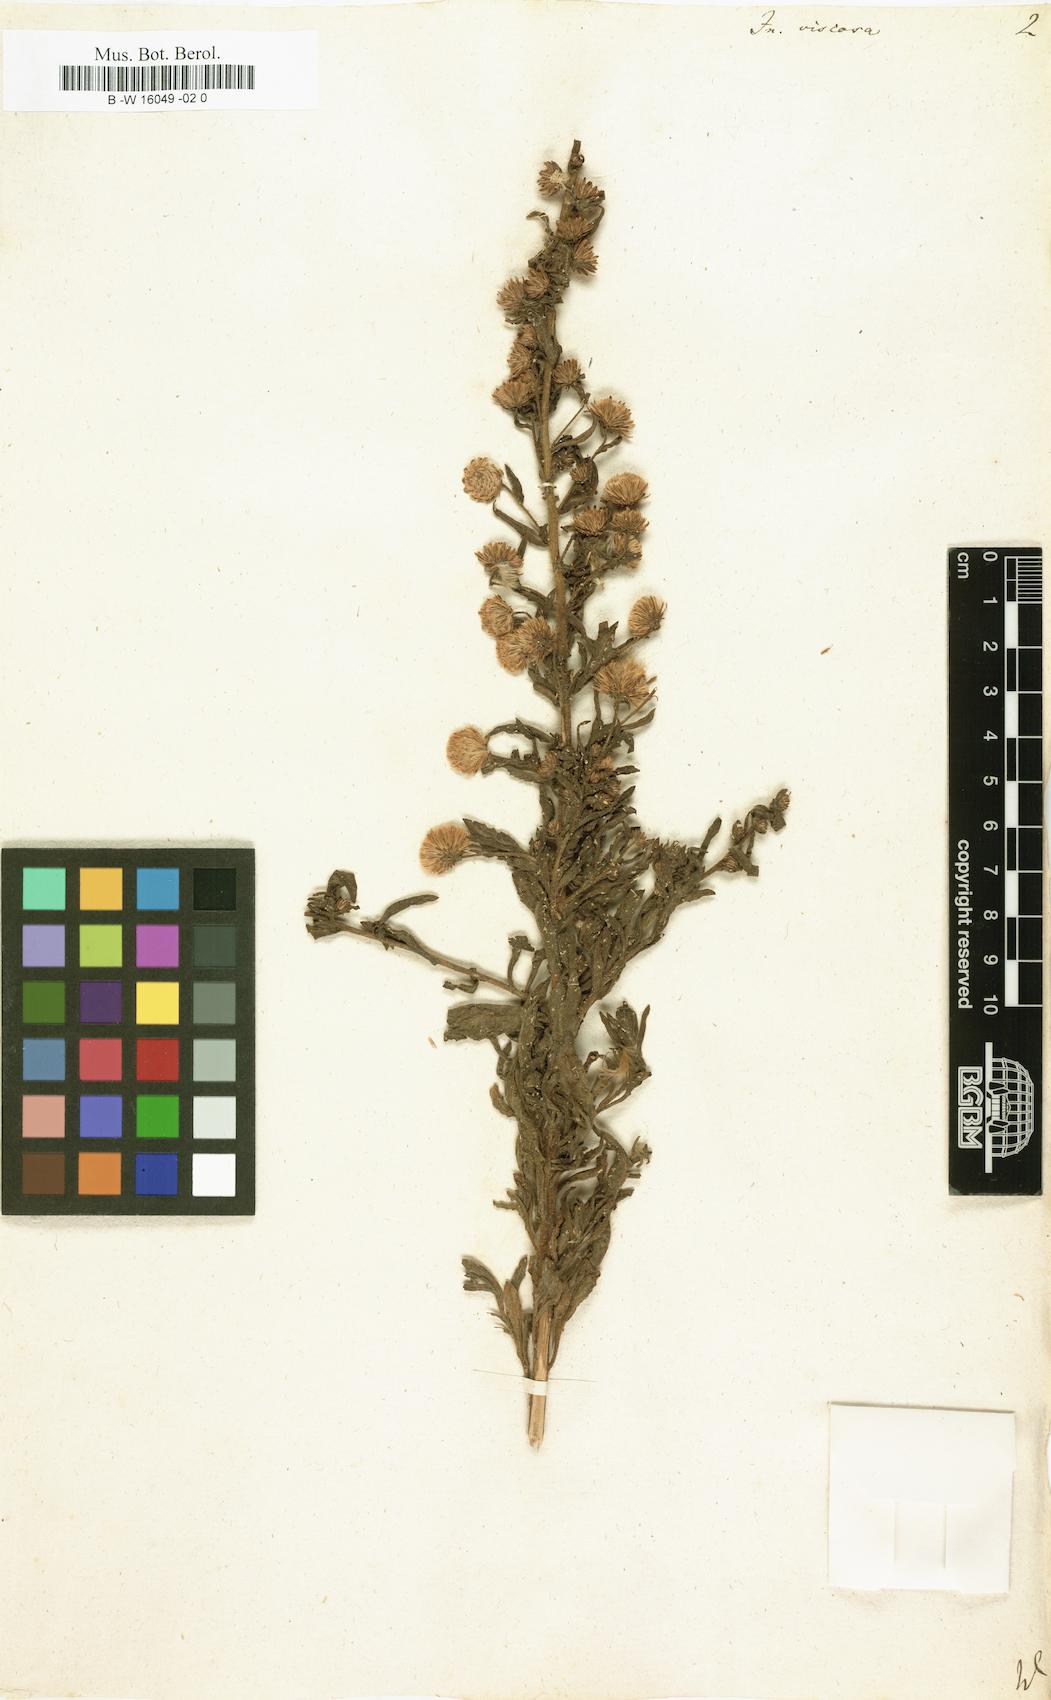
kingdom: Plantae
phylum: Tracheophyta
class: Magnoliopsida
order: Asterales
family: Asteraceae
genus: Dittrichia
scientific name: Dittrichia viscosa
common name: Woody fleabane
